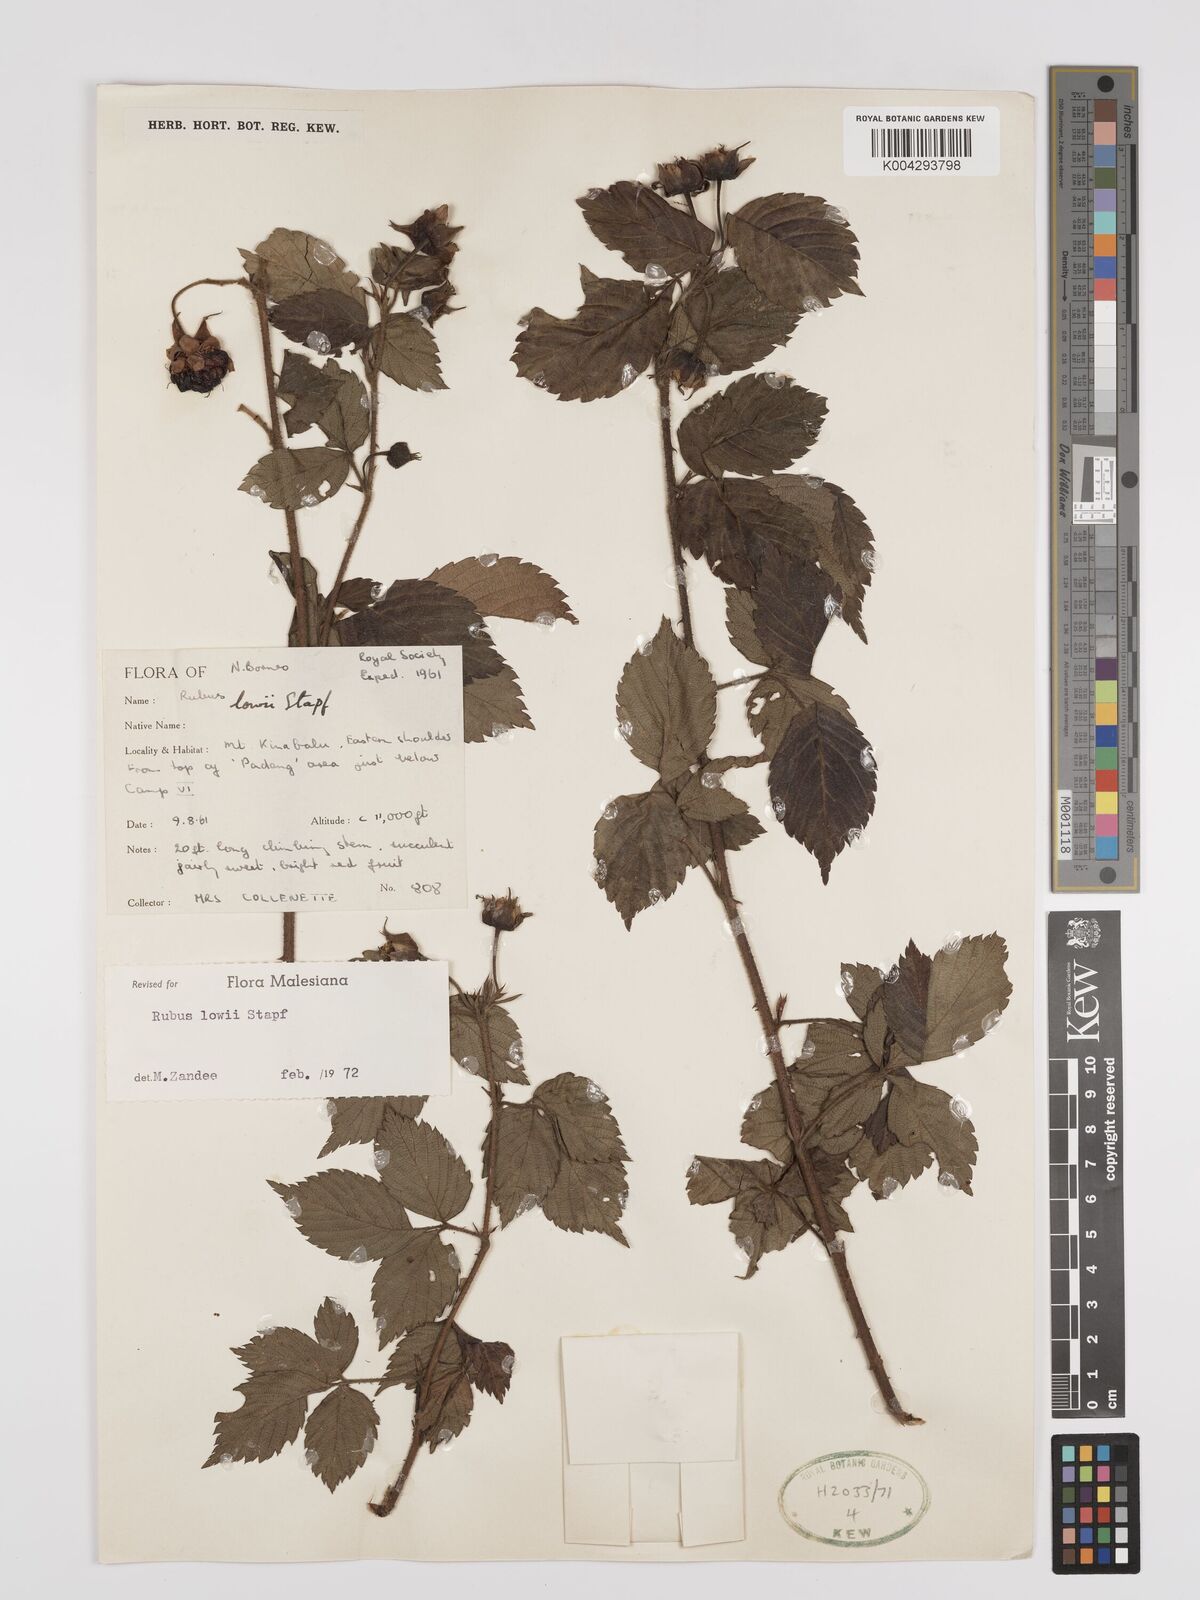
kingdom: Plantae
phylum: Tracheophyta
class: Magnoliopsida
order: Rosales
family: Rosaceae
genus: Rubus
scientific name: Rubus lowii
